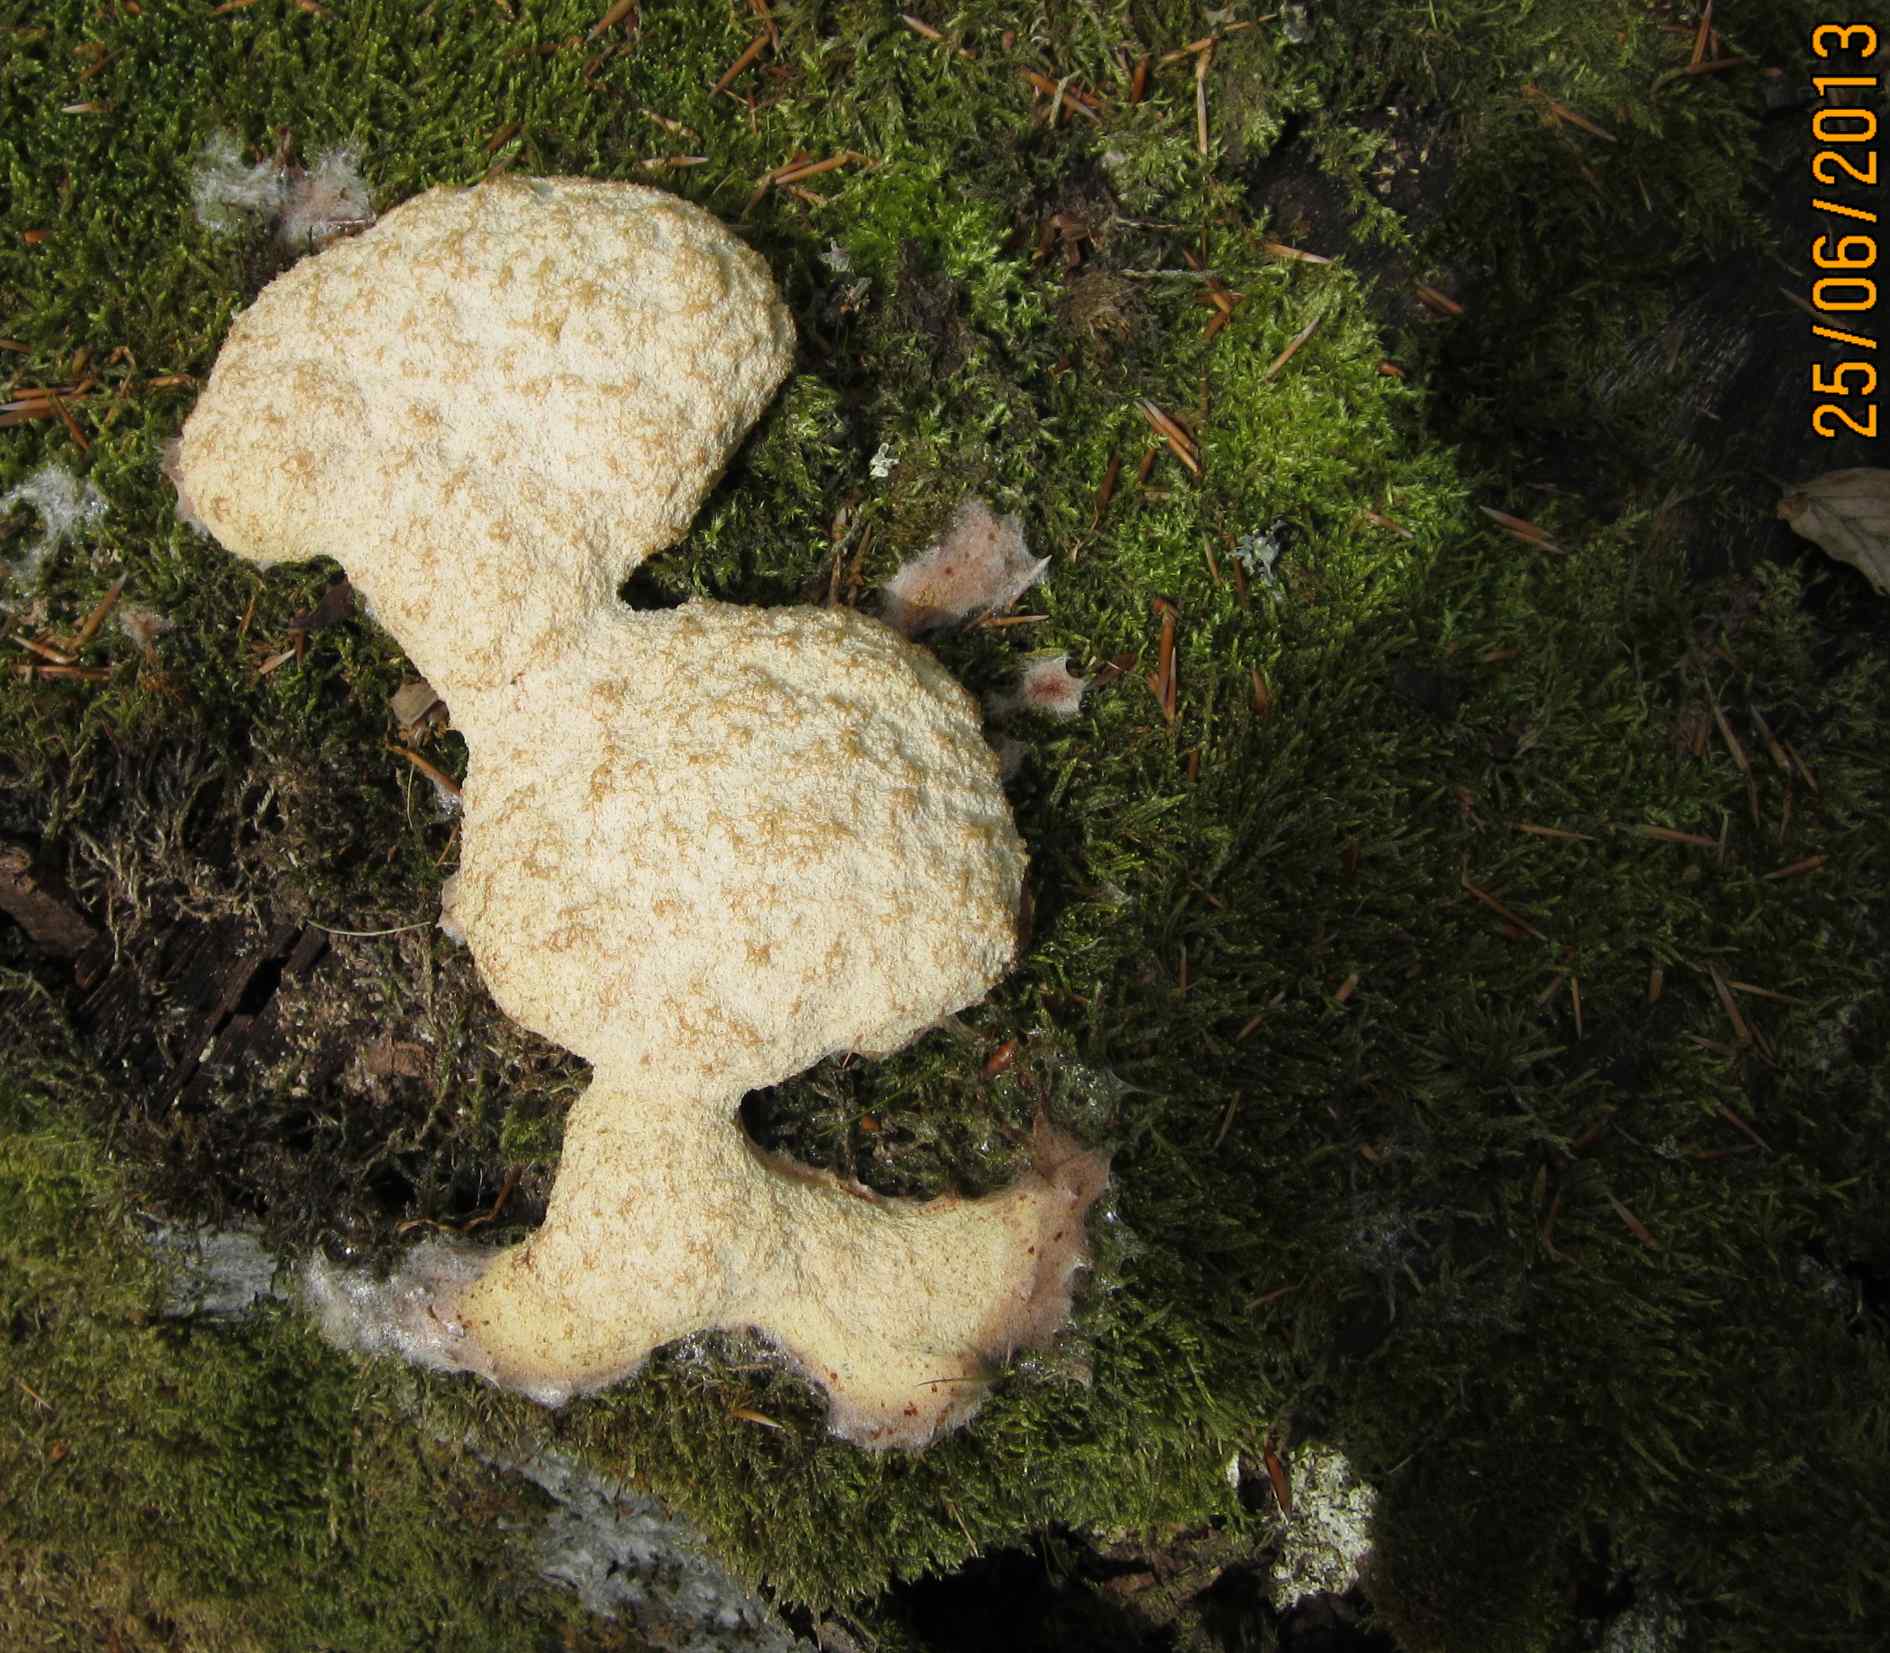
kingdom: Protozoa
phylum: Mycetozoa
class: Myxomycetes
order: Physarales
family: Physaraceae
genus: Fuligo
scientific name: Fuligo septica
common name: Dog vomit slime mold
